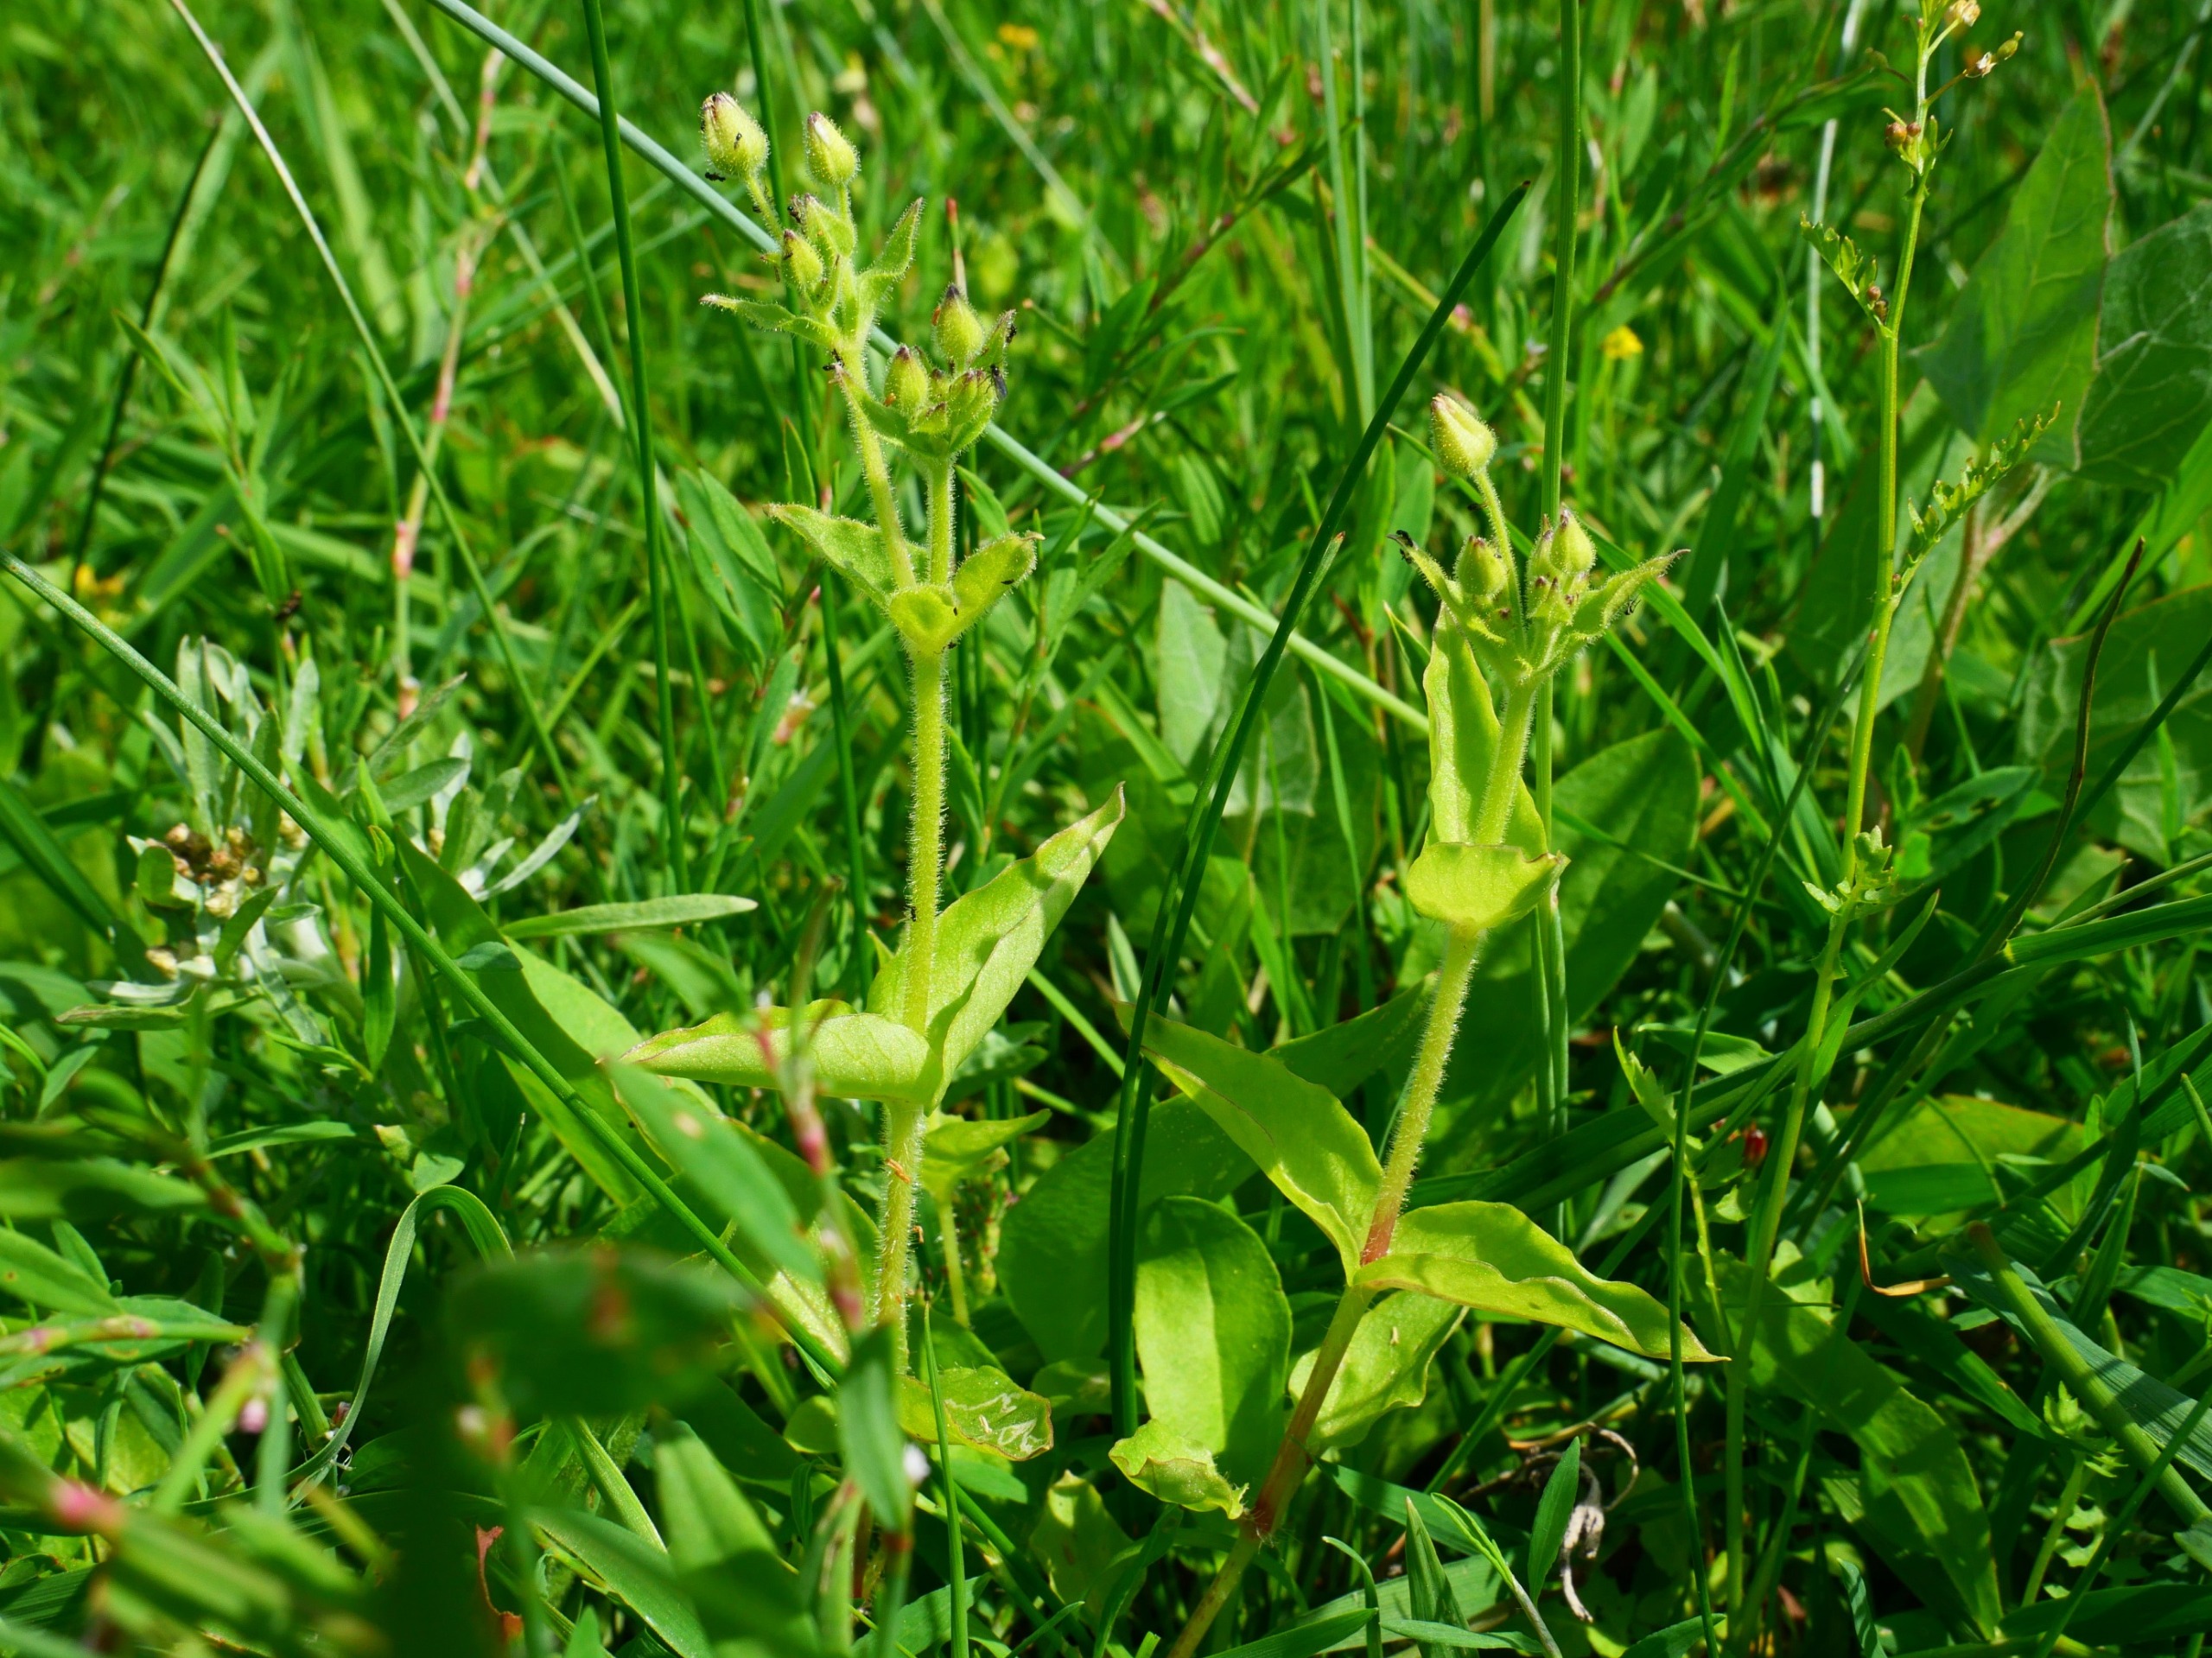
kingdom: Plantae
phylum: Tracheophyta
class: Magnoliopsida
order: Caryophyllales
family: Caryophyllaceae
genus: Stellaria
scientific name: Stellaria aquatica
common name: Kløvkrone
